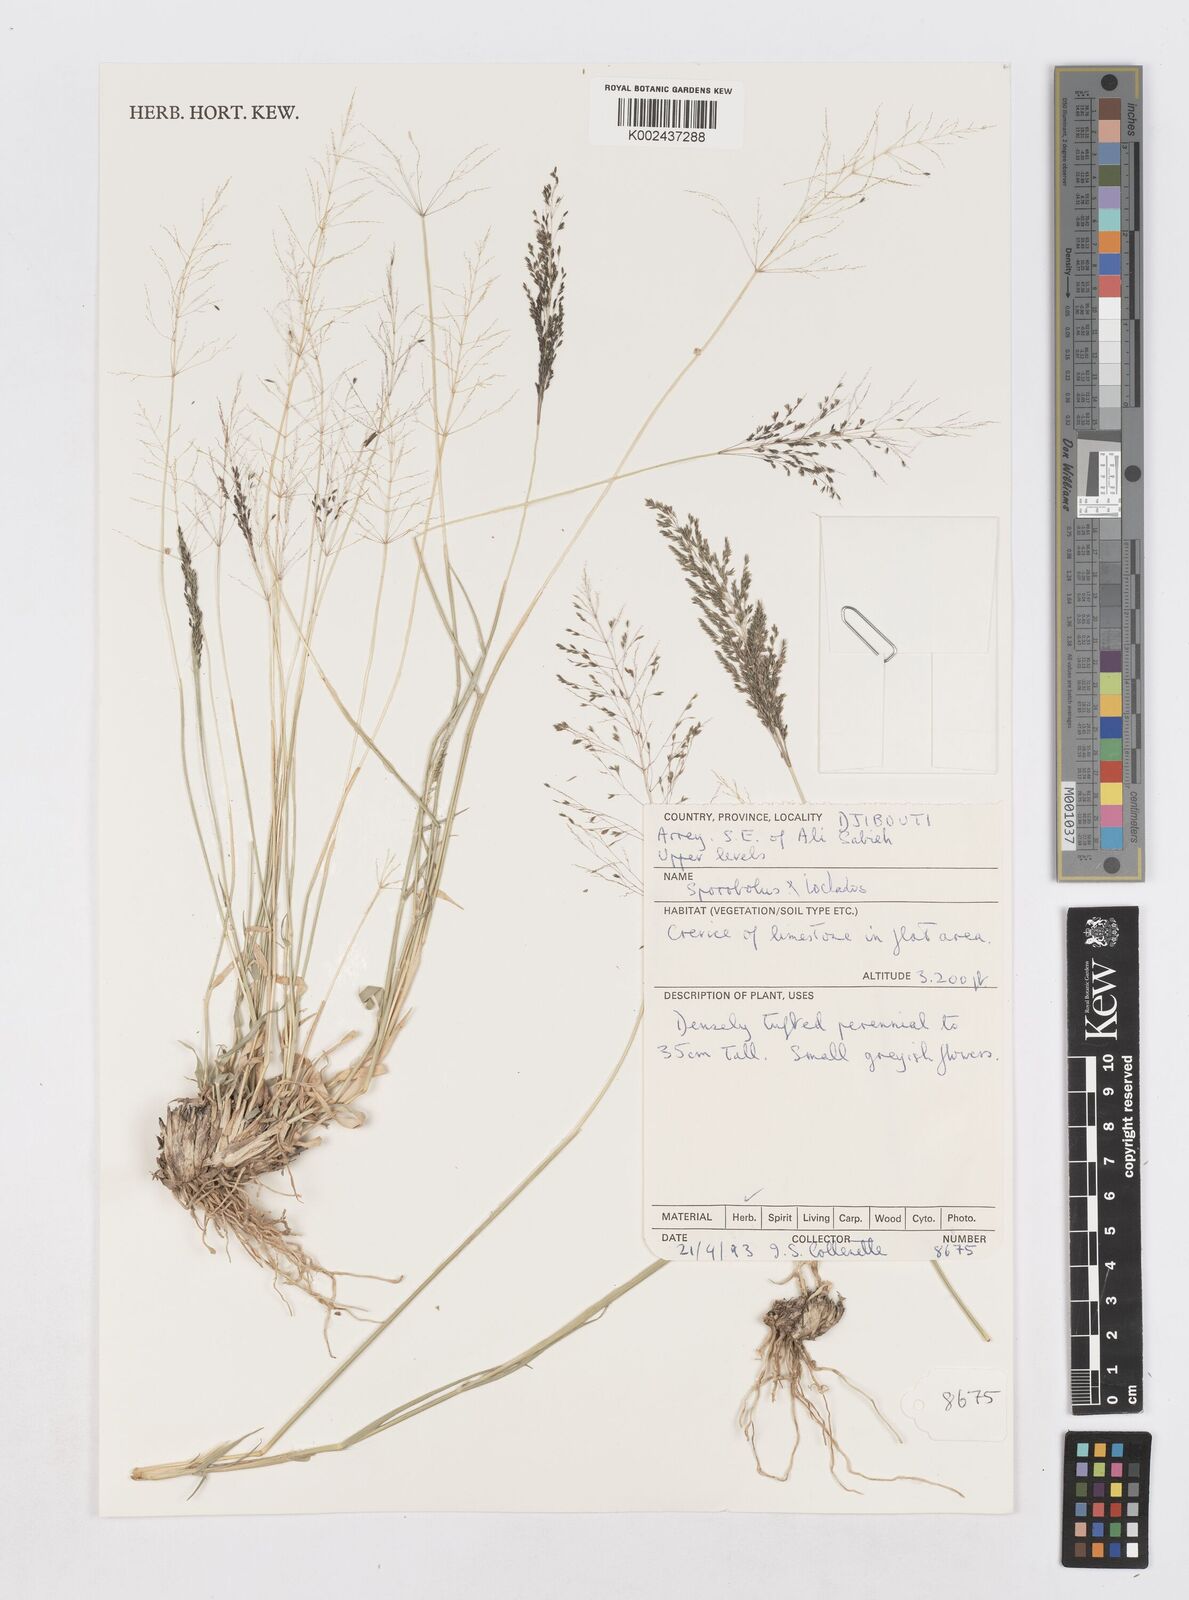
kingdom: Plantae
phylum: Tracheophyta
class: Liliopsida
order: Poales
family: Poaceae
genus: Sporobolus
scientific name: Sporobolus ioclados
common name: Pan dropseed
